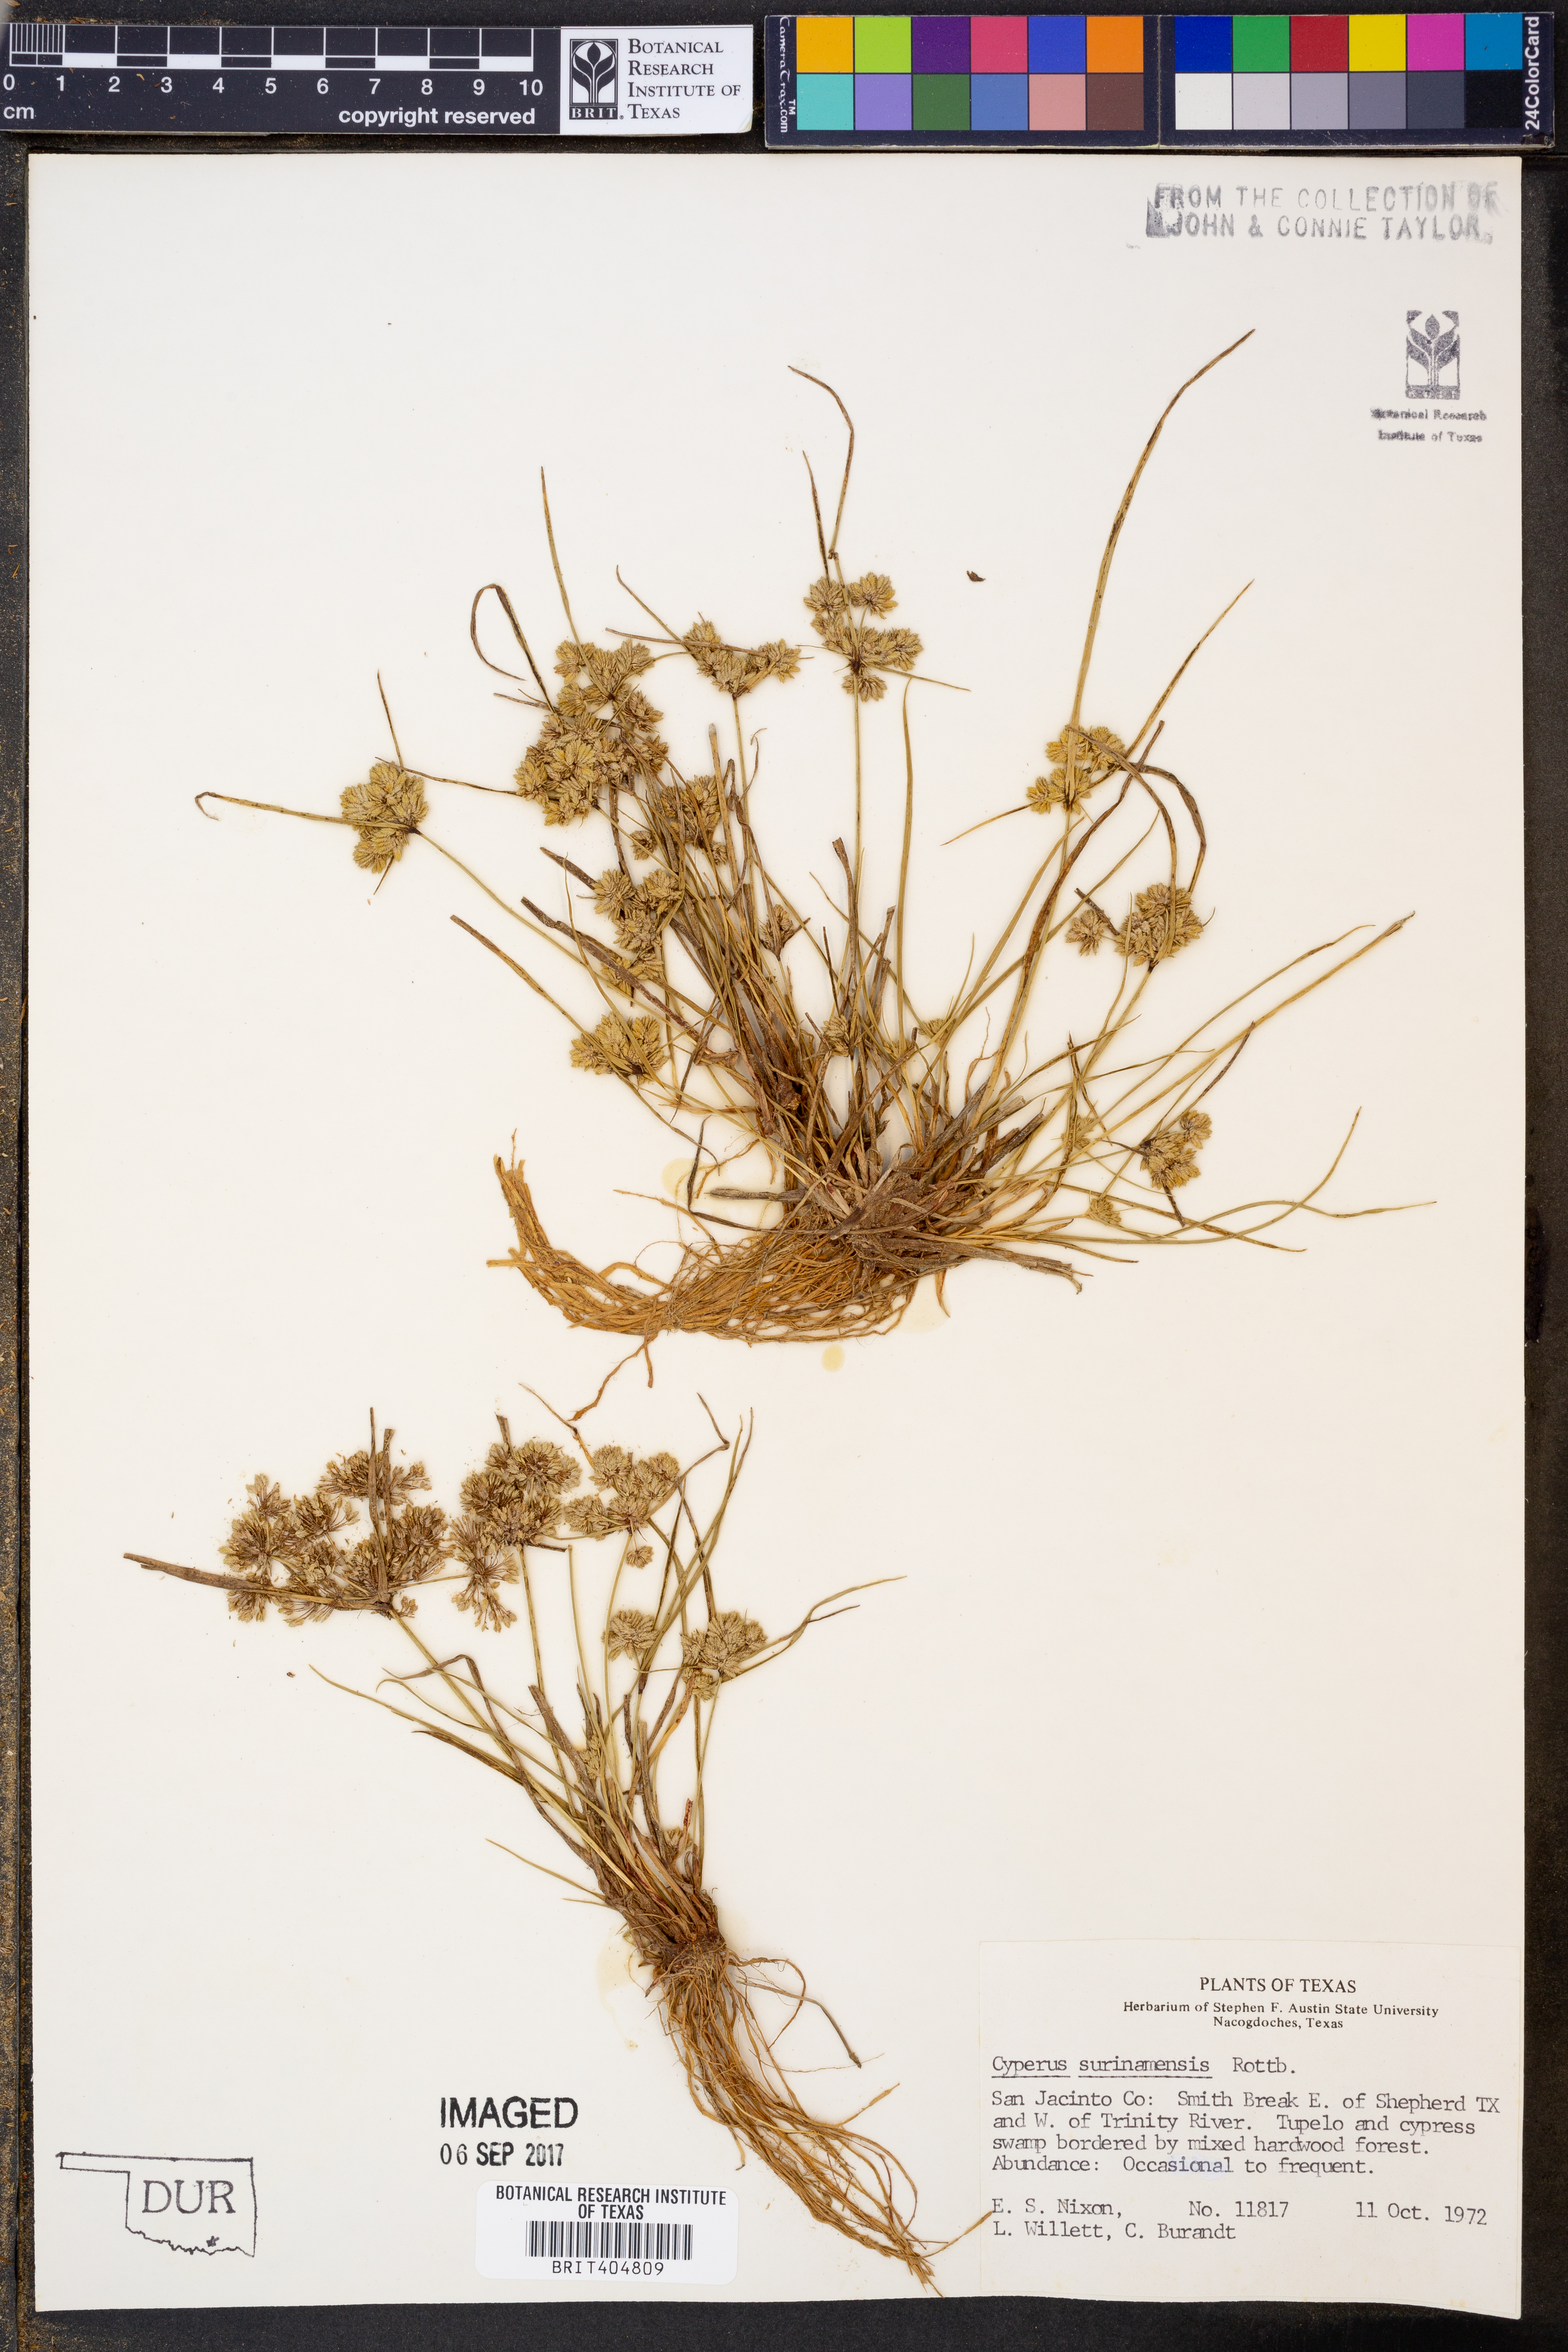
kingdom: Plantae
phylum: Tracheophyta
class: Liliopsida
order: Poales
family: Cyperaceae
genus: Cyperus
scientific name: Cyperus surinamensis
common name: Tropical flat sedge
